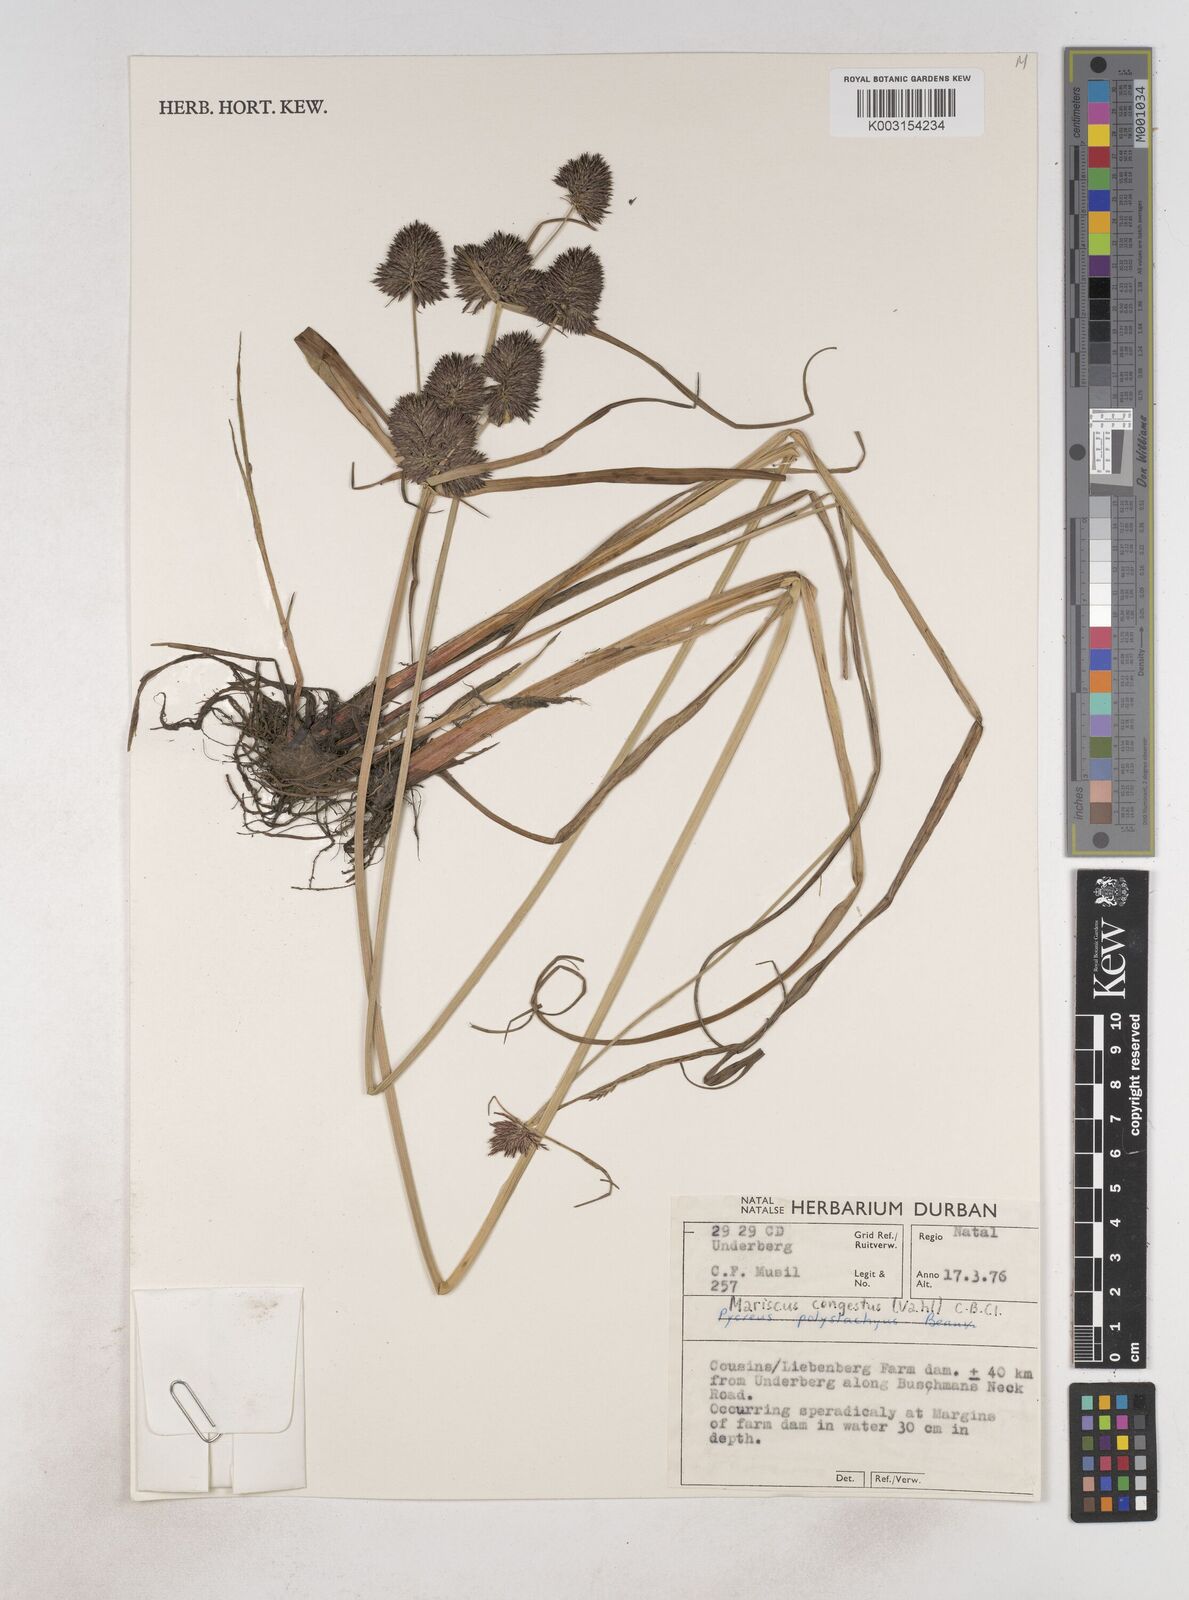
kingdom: Plantae
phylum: Tracheophyta
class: Liliopsida
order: Poales
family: Cyperaceae
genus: Cyperus
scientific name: Cyperus congestus
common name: Dense flat sedge
